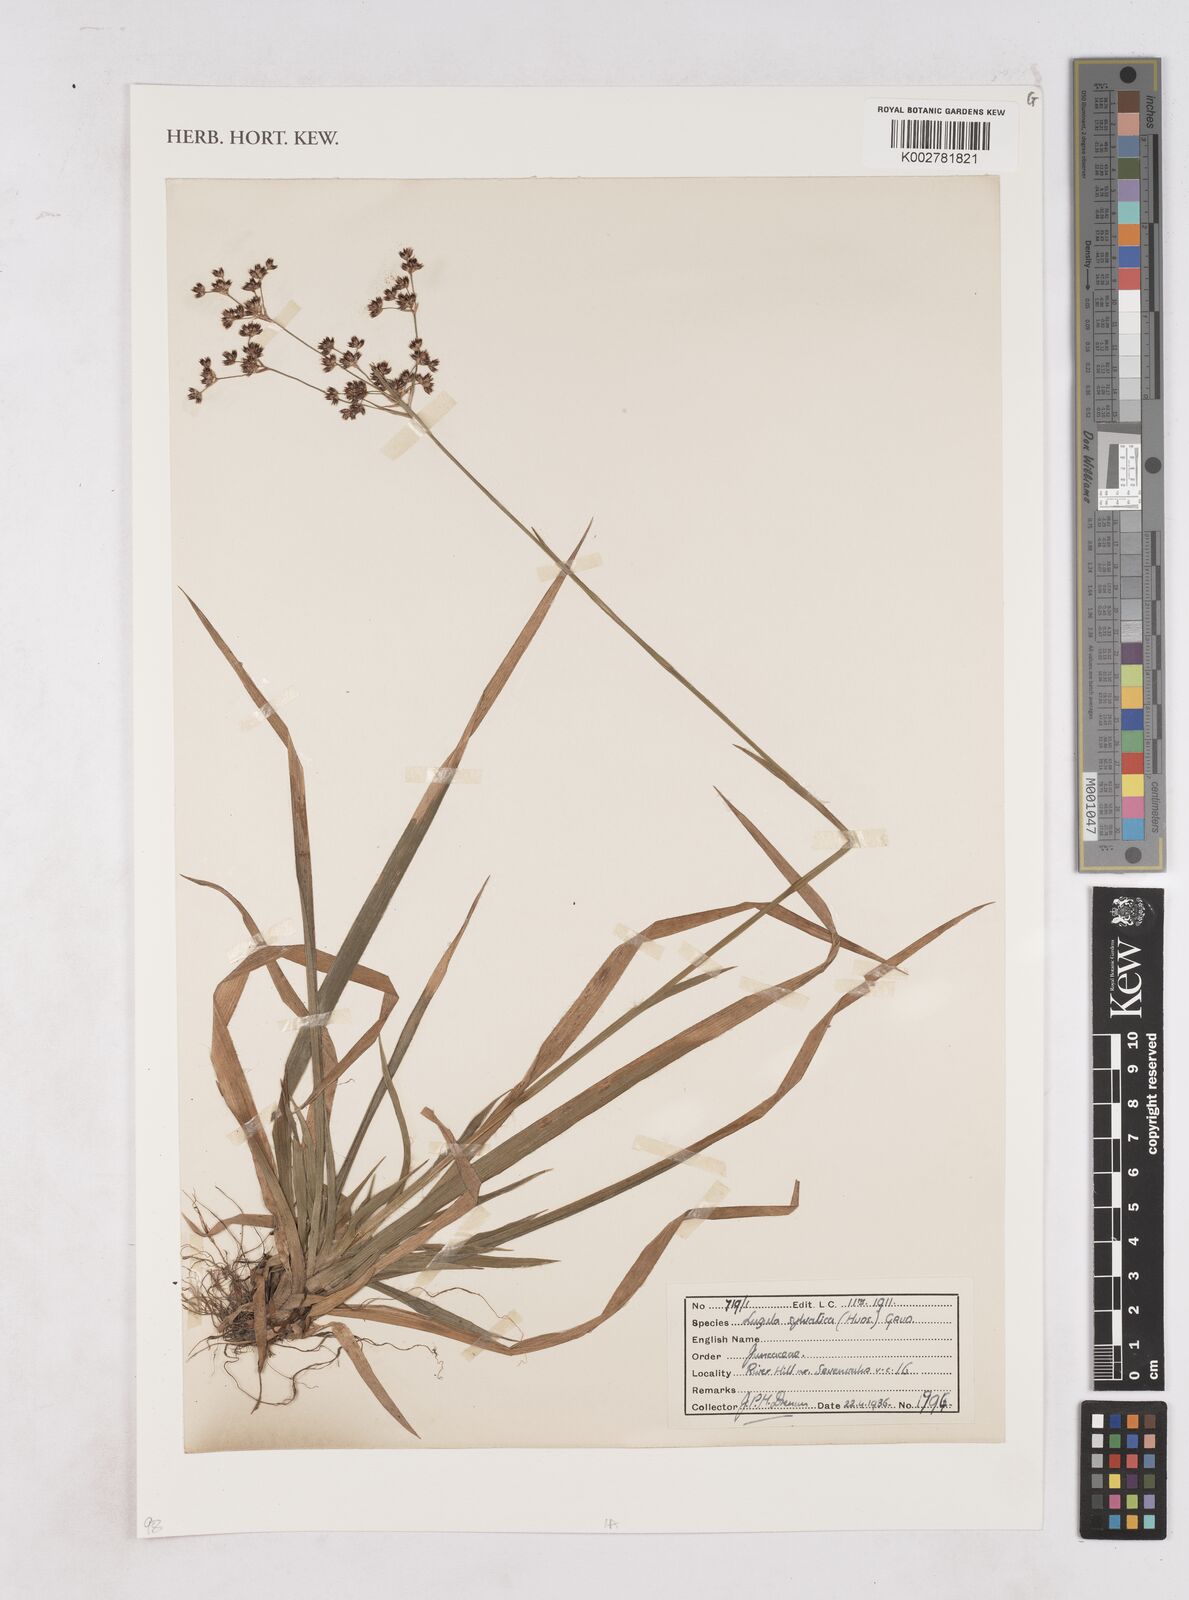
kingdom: Plantae
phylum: Tracheophyta
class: Liliopsida
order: Poales
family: Juncaceae
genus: Luzula
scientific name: Luzula sylvatica
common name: Great wood-rush
